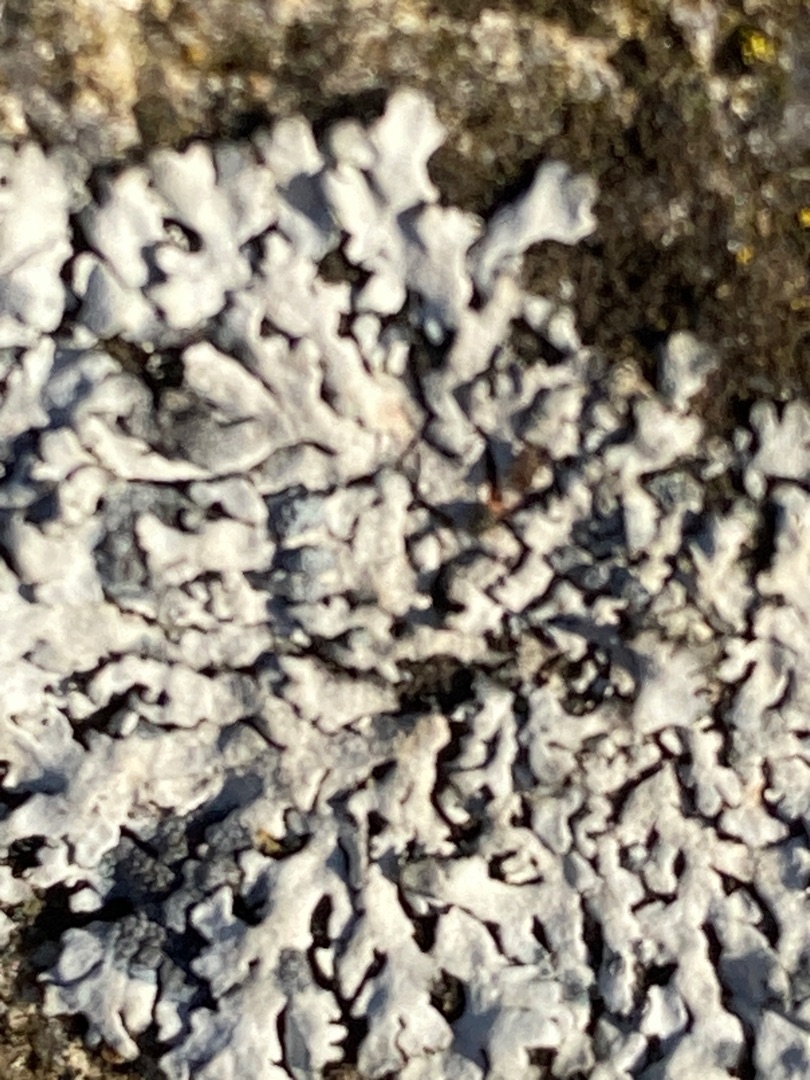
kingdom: Fungi
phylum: Ascomycota
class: Lecanoromycetes
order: Caliciales
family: Physciaceae
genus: Physcia
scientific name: Physcia caesia
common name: Blågrå rosetlav
